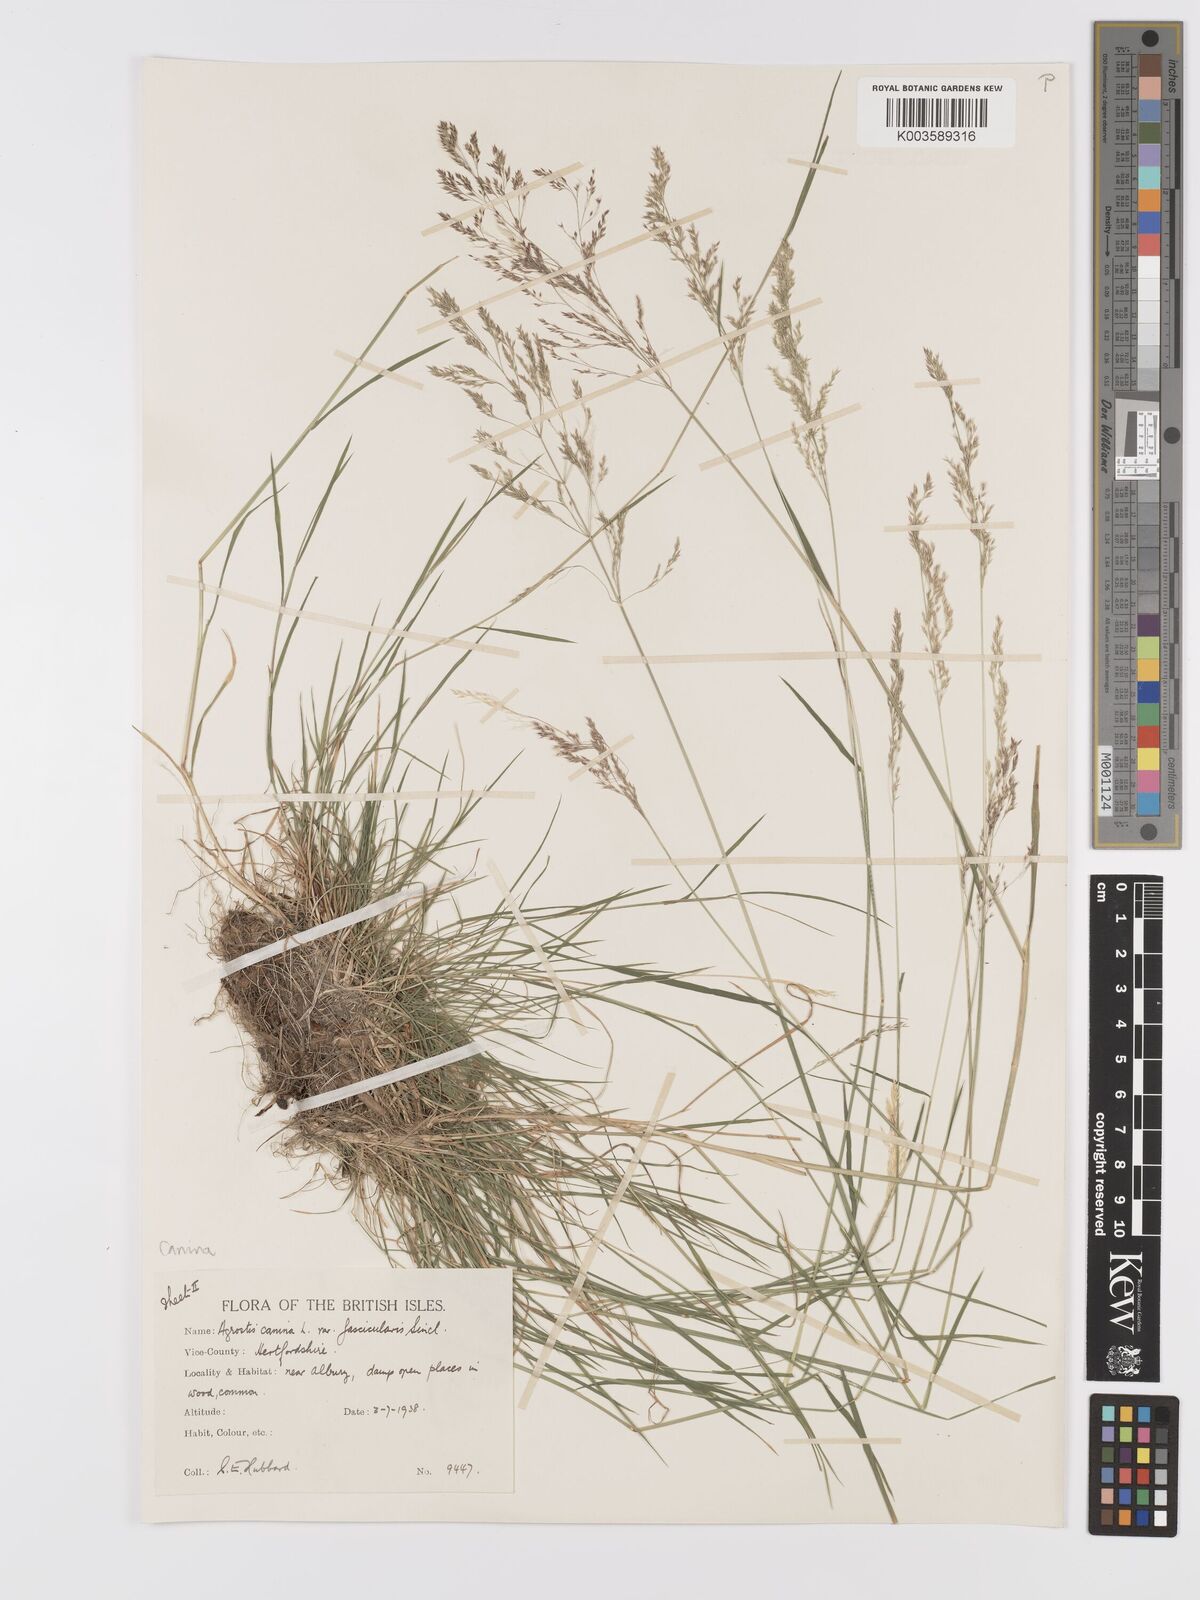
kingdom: Plantae
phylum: Tracheophyta
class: Liliopsida
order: Poales
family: Poaceae
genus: Agrostis
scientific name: Agrostis canina
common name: Velvet bent
